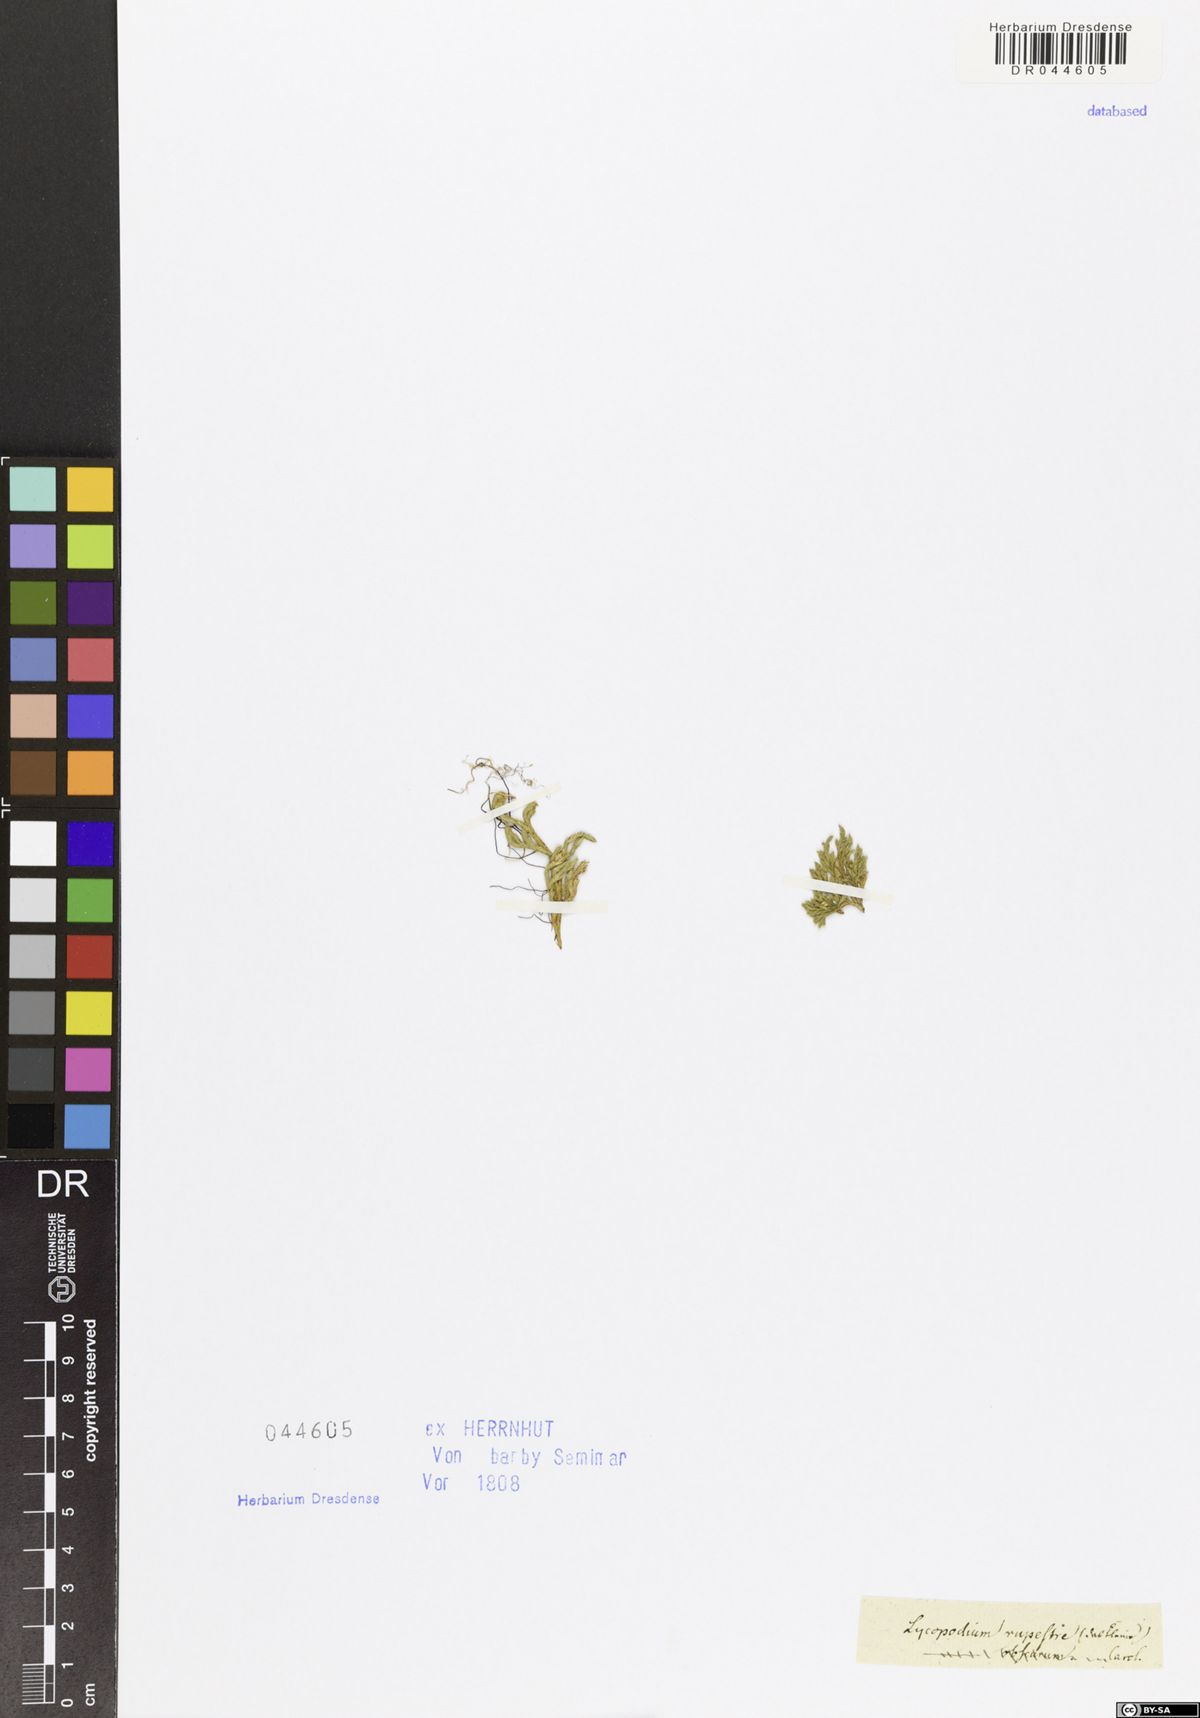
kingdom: Plantae
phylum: Tracheophyta
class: Lycopodiopsida
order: Selaginellales
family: Selaginellaceae
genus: Selaginella
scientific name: Selaginella rupestris
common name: Dwarf spikemoss
